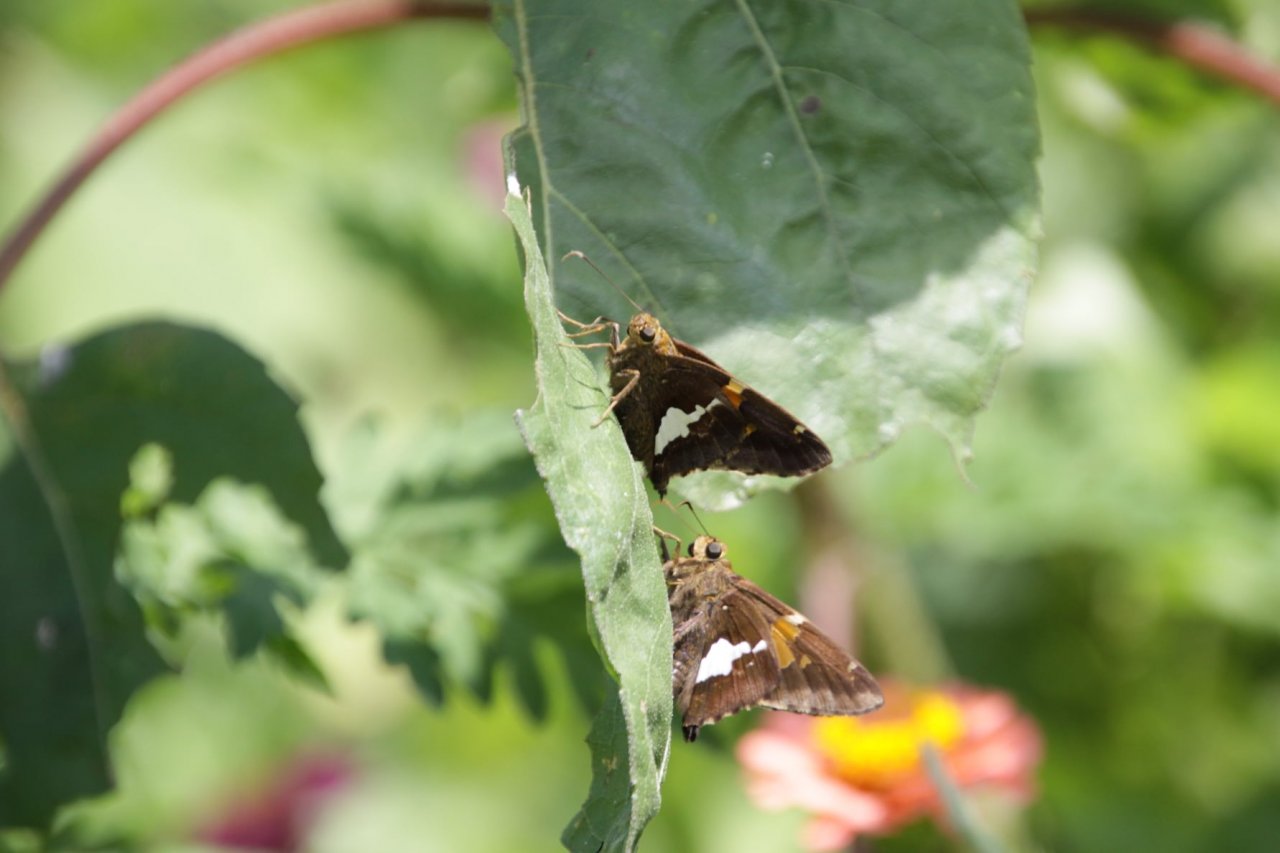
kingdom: Animalia
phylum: Arthropoda
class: Insecta
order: Lepidoptera
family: Hesperiidae
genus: Epargyreus
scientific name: Epargyreus clarus
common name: Silver-spotted Skipper
